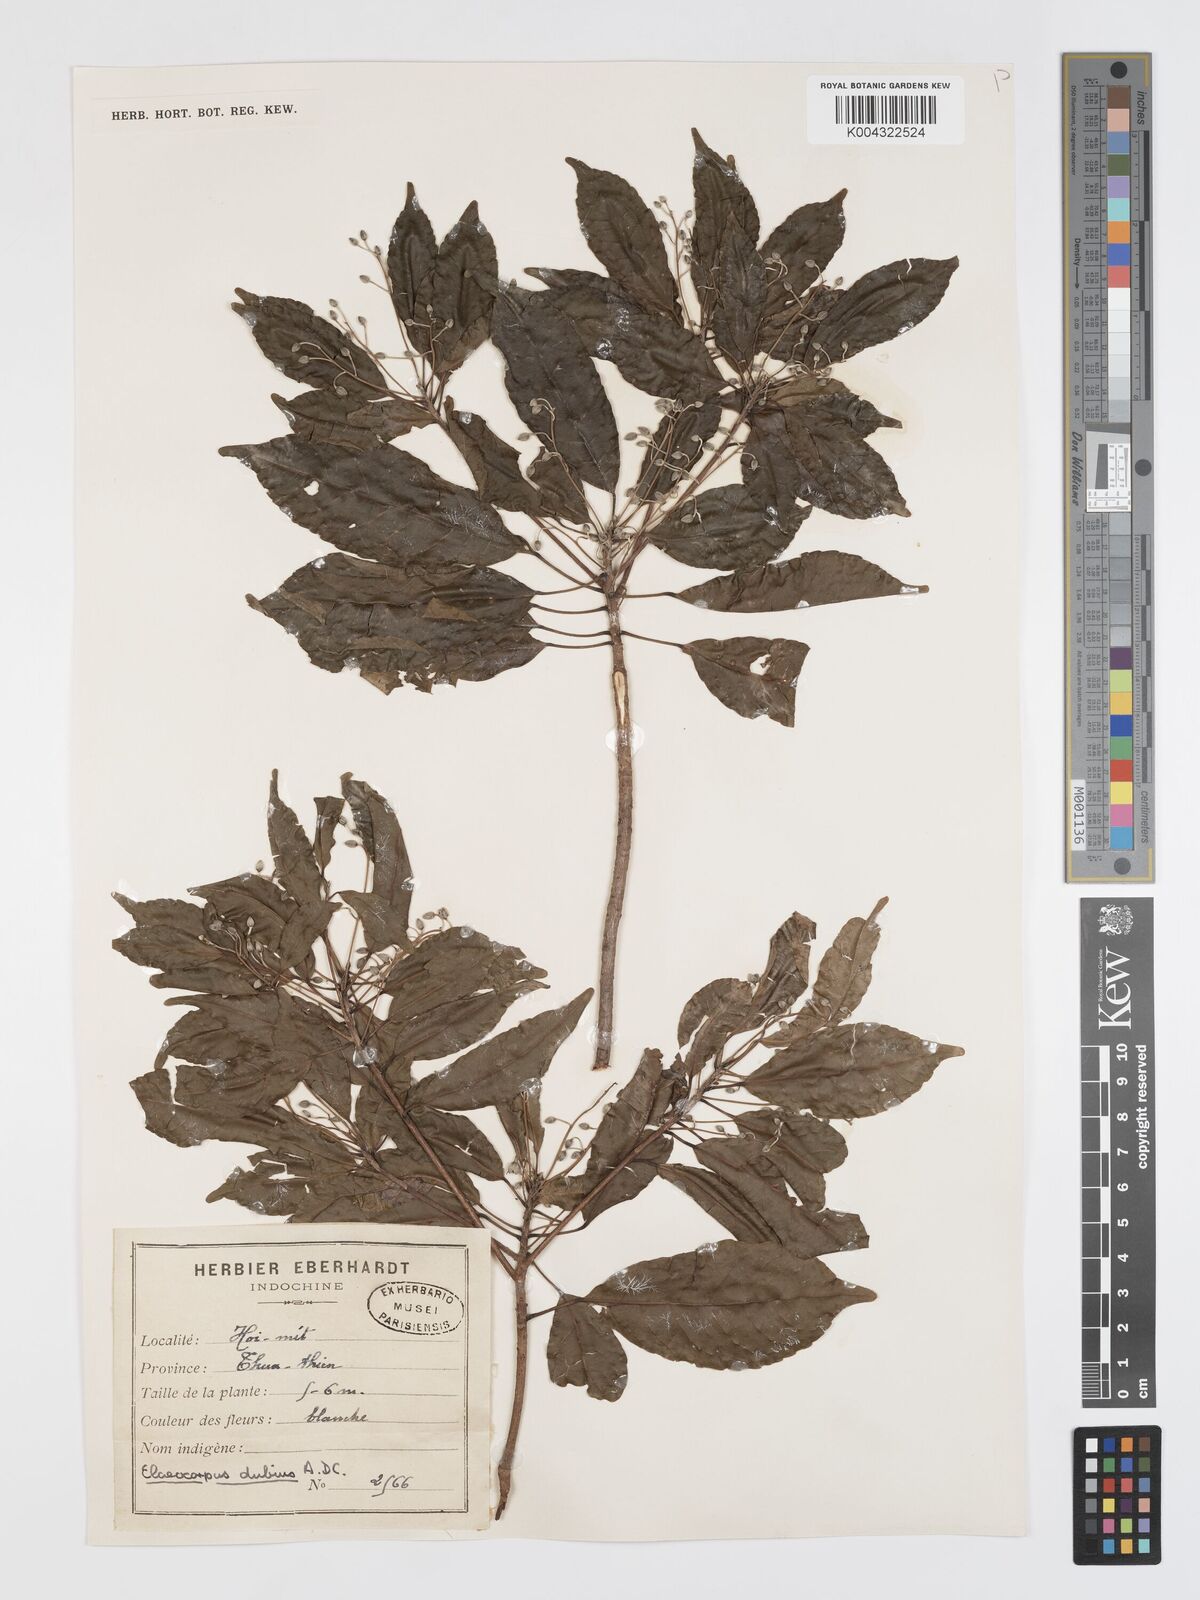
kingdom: Plantae
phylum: Tracheophyta
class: Magnoliopsida
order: Oxalidales
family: Elaeocarpaceae
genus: Elaeocarpus
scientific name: Elaeocarpus dubius
